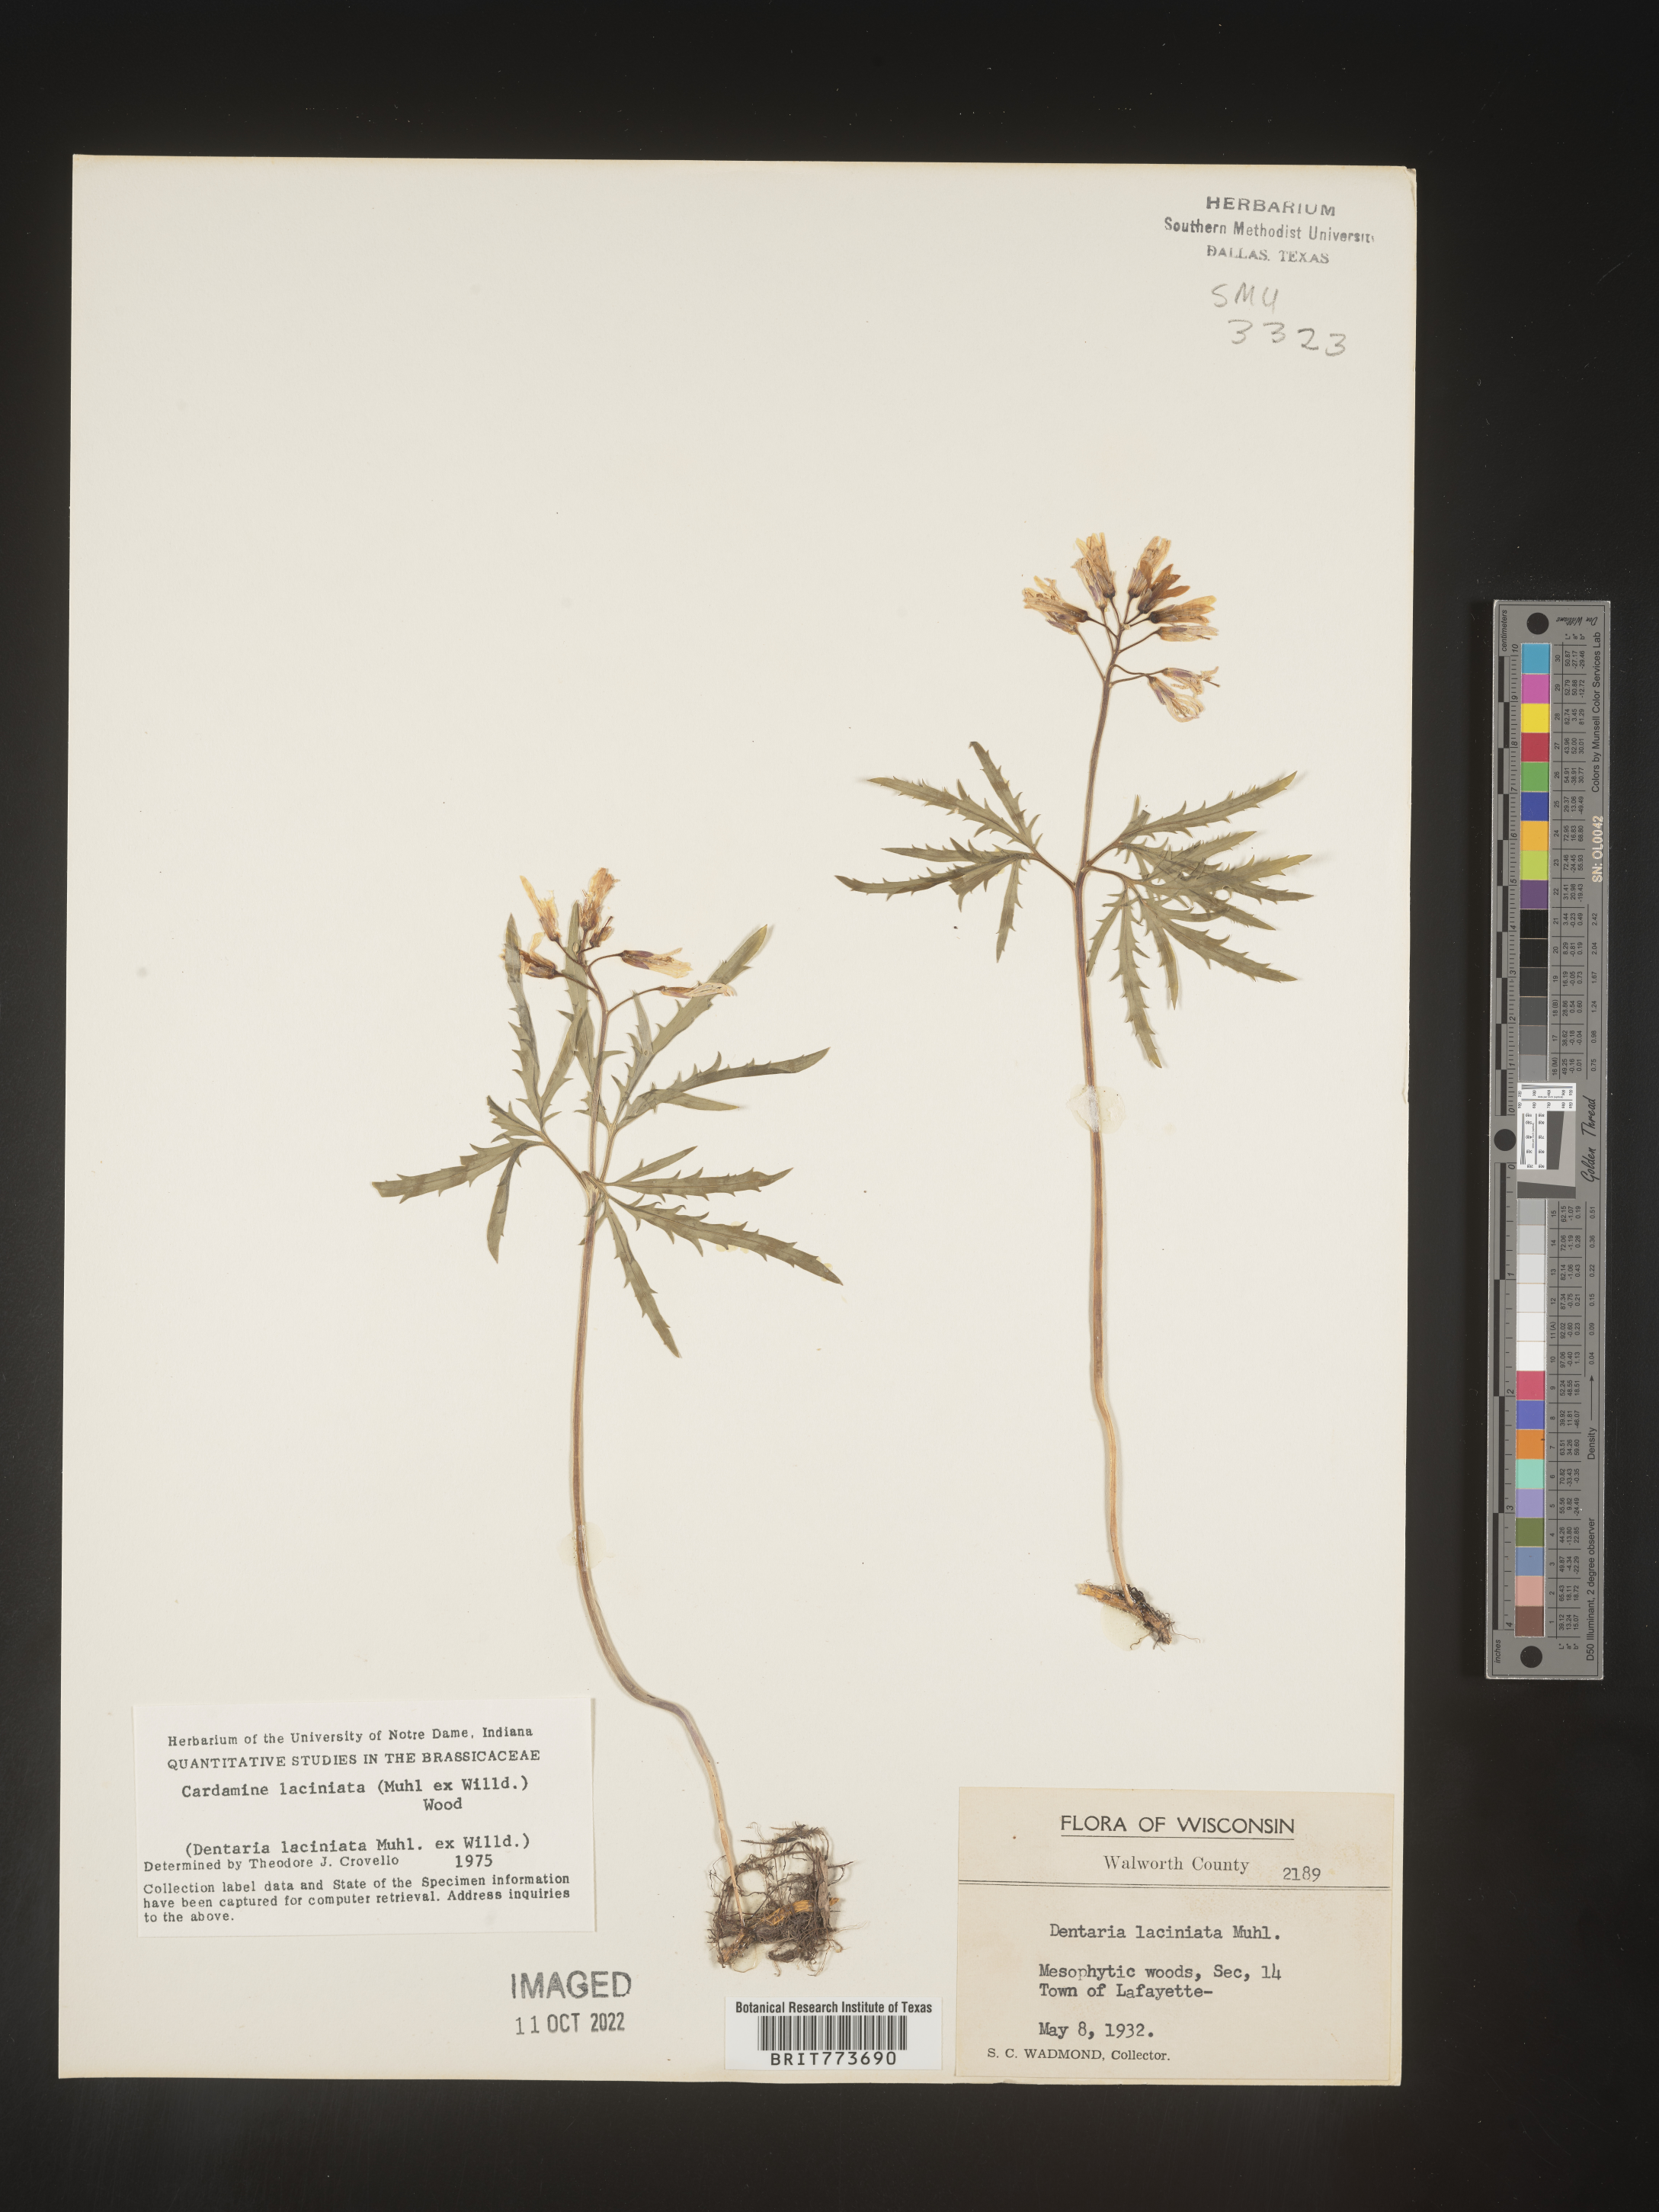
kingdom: Plantae
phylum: Tracheophyta
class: Magnoliopsida
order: Brassicales
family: Brassicaceae
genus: Rorippa
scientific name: Rorippa laciniata
